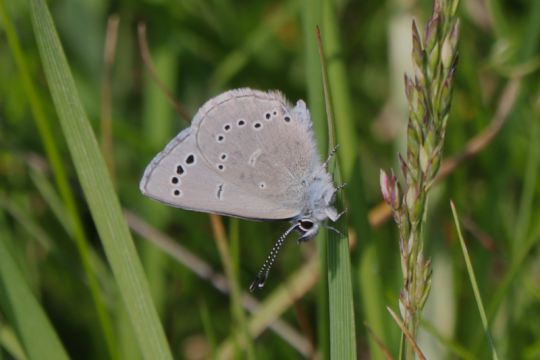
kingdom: Animalia
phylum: Arthropoda
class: Insecta
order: Lepidoptera
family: Lycaenidae
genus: Glaucopsyche
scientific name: Glaucopsyche lygdamus
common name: Silvery Blue
